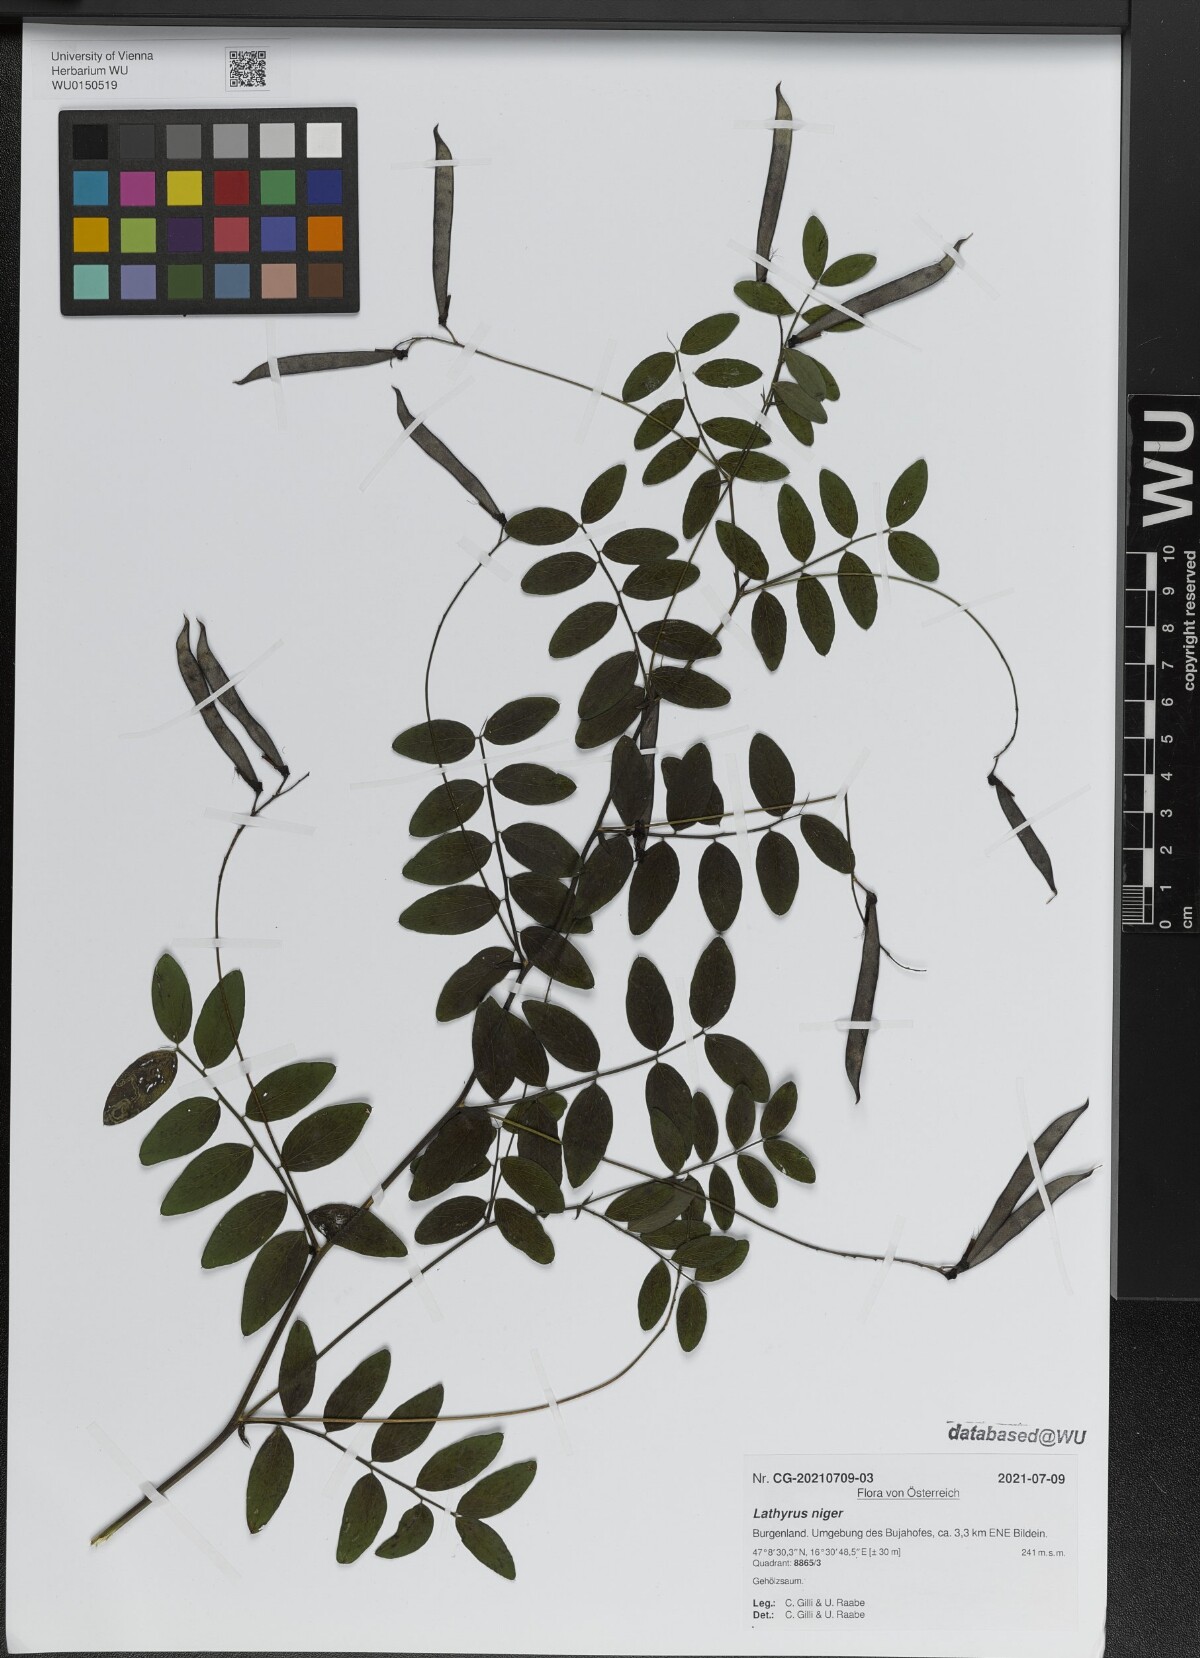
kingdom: Plantae
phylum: Tracheophyta
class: Magnoliopsida
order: Fabales
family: Fabaceae
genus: Lathyrus
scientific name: Lathyrus niger
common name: Black pea
